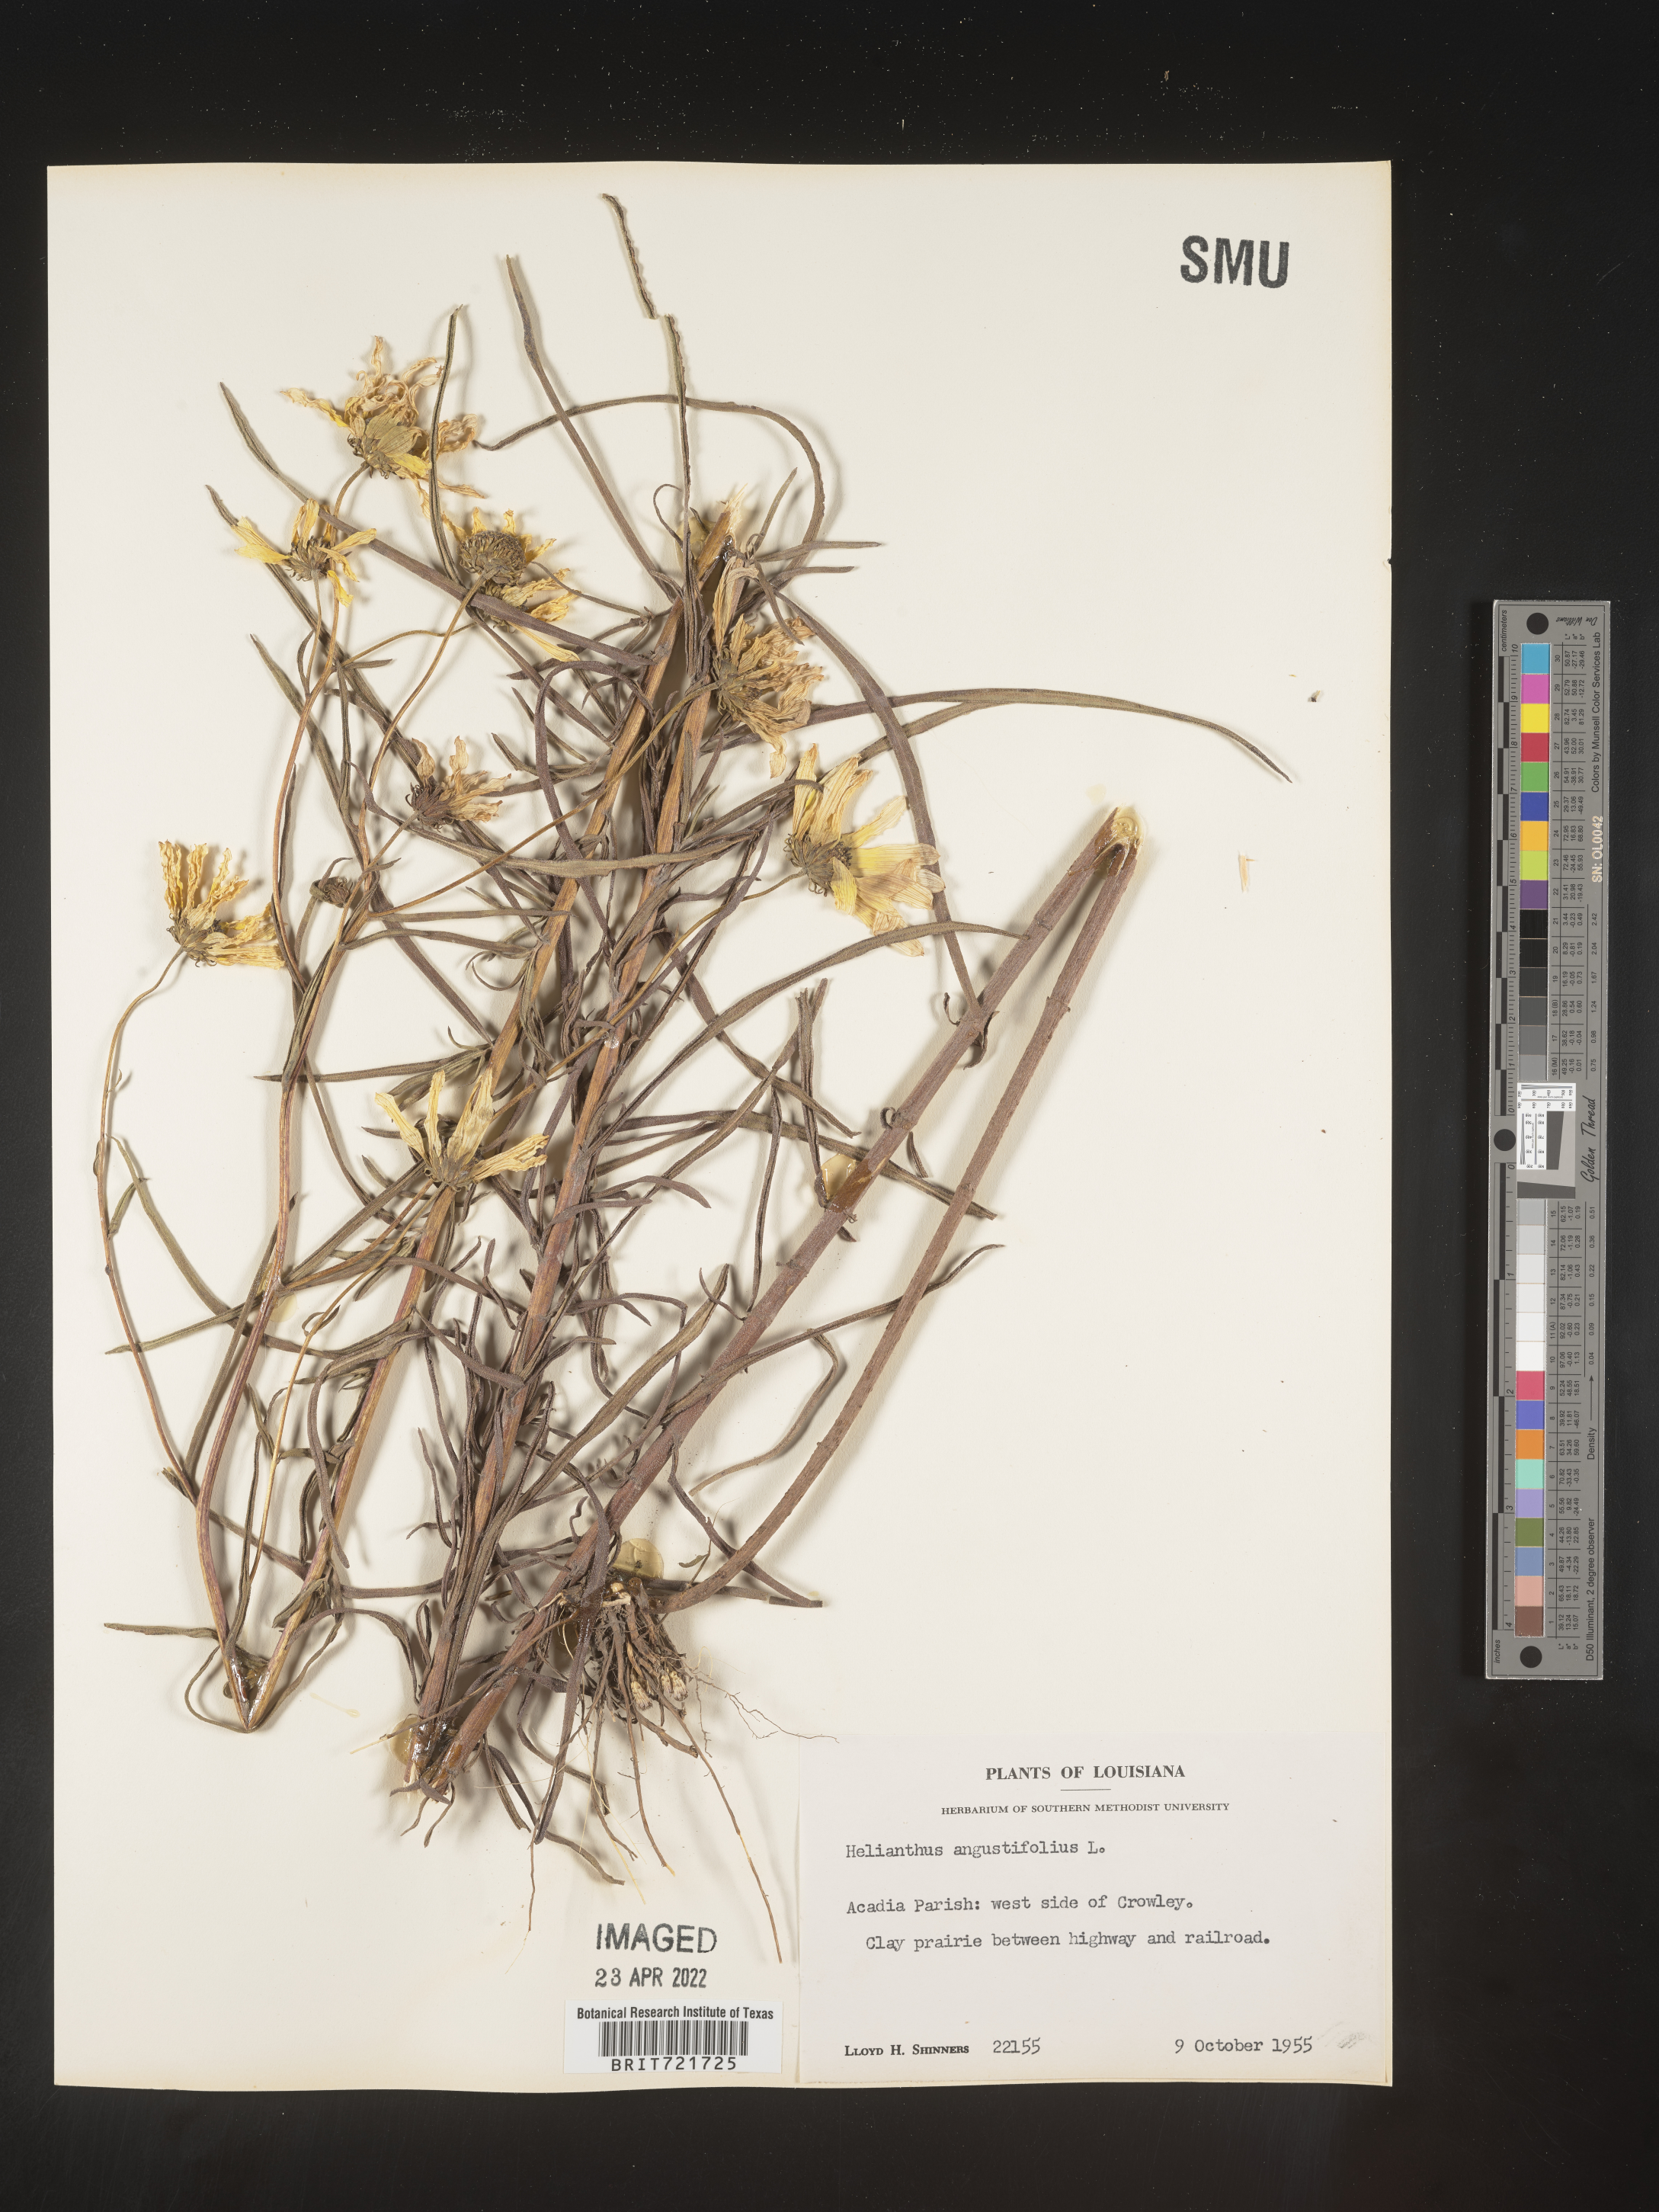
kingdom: Plantae
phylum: Tracheophyta
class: Magnoliopsida
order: Asterales
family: Asteraceae
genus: Helianthus
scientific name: Helianthus angustifolius
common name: Swamp sunflower
